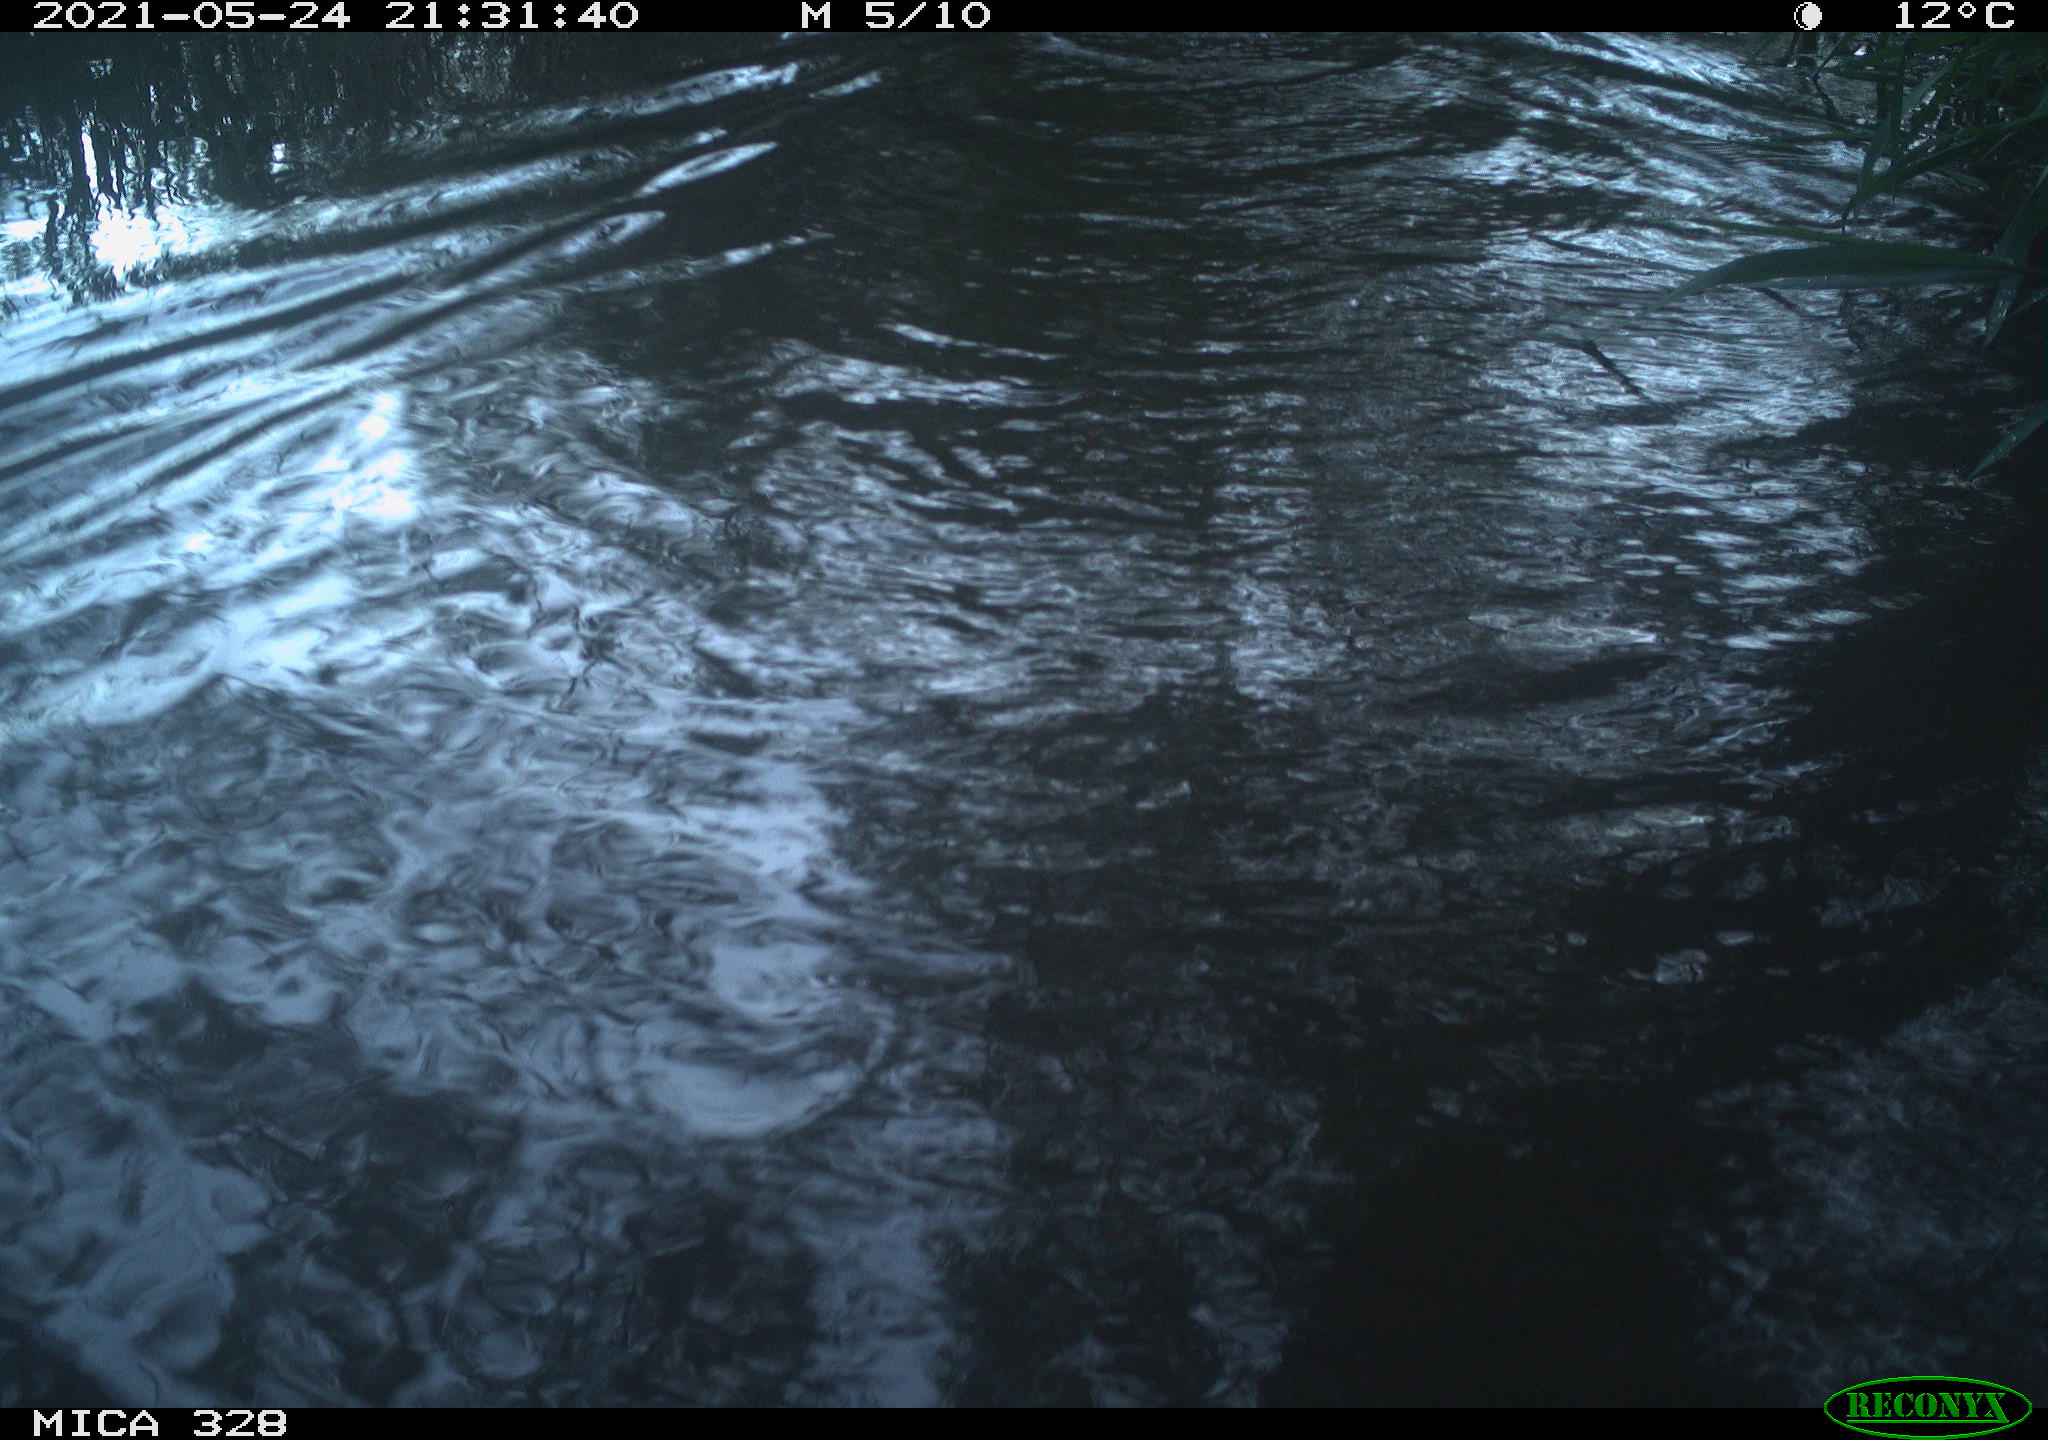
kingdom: Animalia
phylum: Chordata
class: Mammalia
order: Rodentia
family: Cricetidae
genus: Ondatra
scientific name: Ondatra zibethicus
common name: Muskrat
